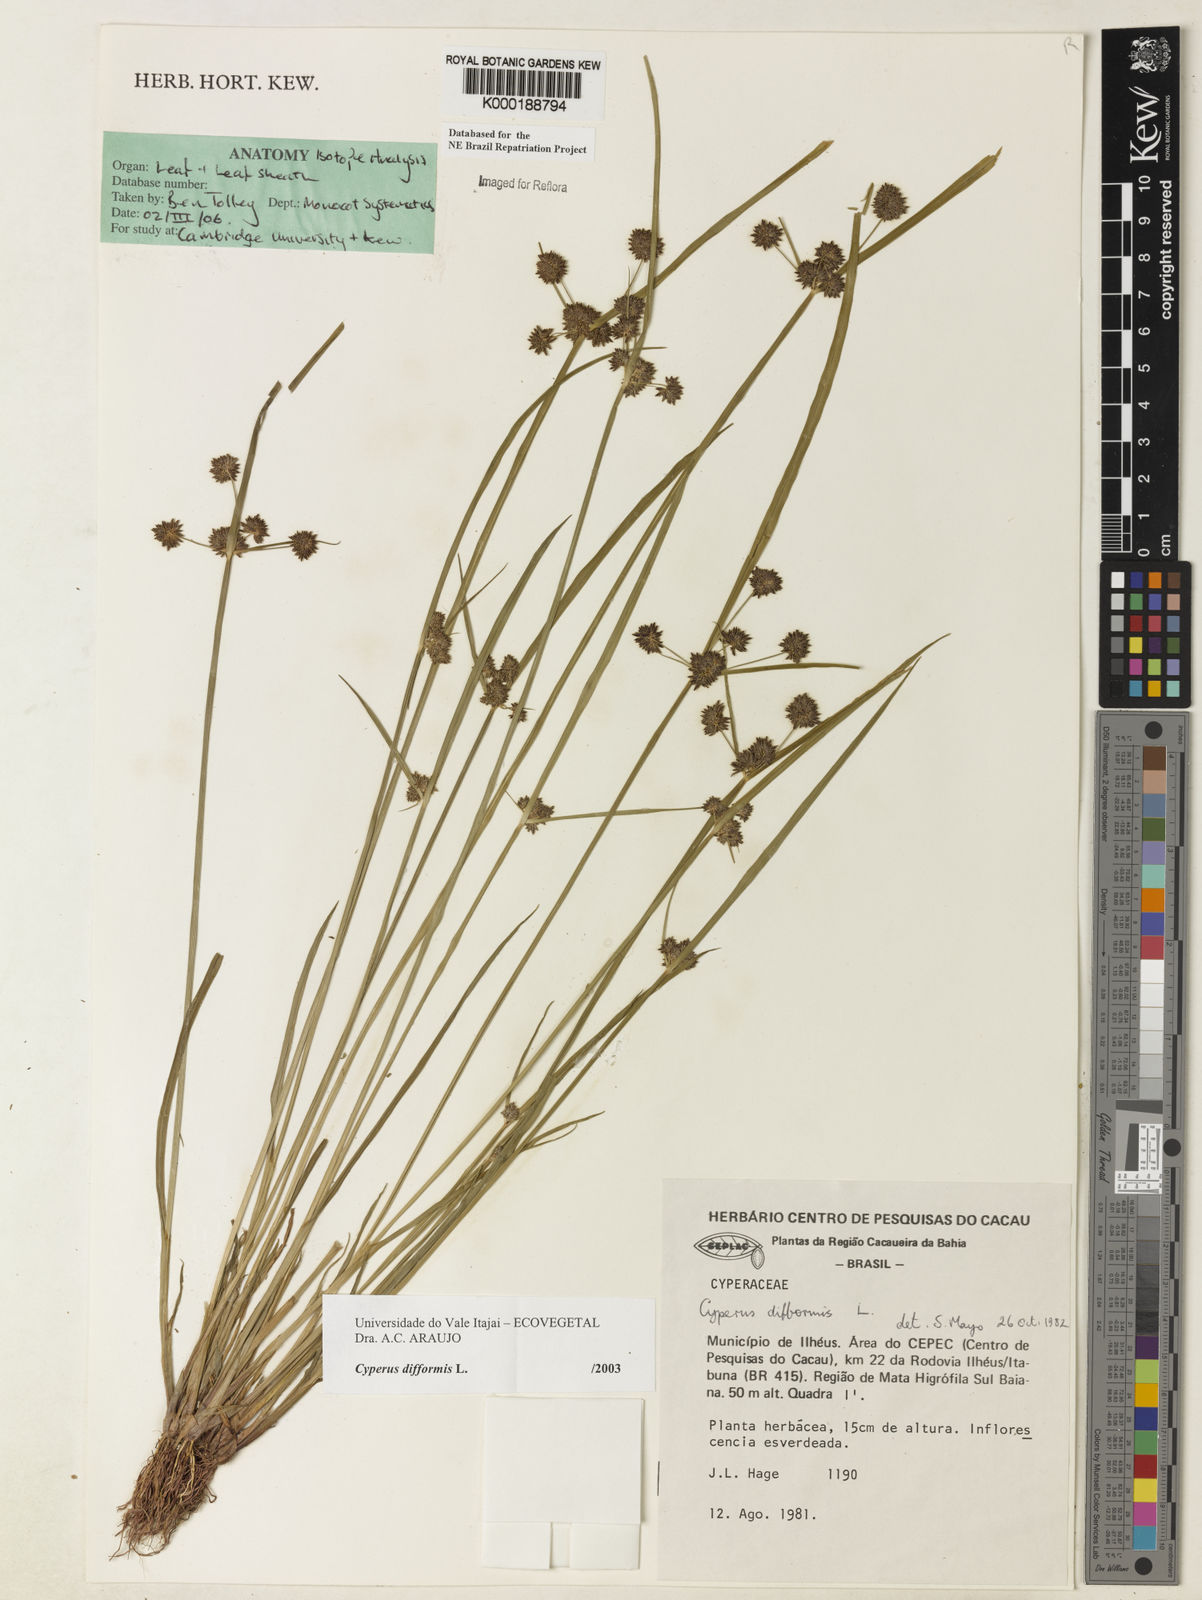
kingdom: Plantae
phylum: Tracheophyta
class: Liliopsida
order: Poales
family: Cyperaceae
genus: Cyperus
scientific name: Cyperus difformis
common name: Variable flatsedge
